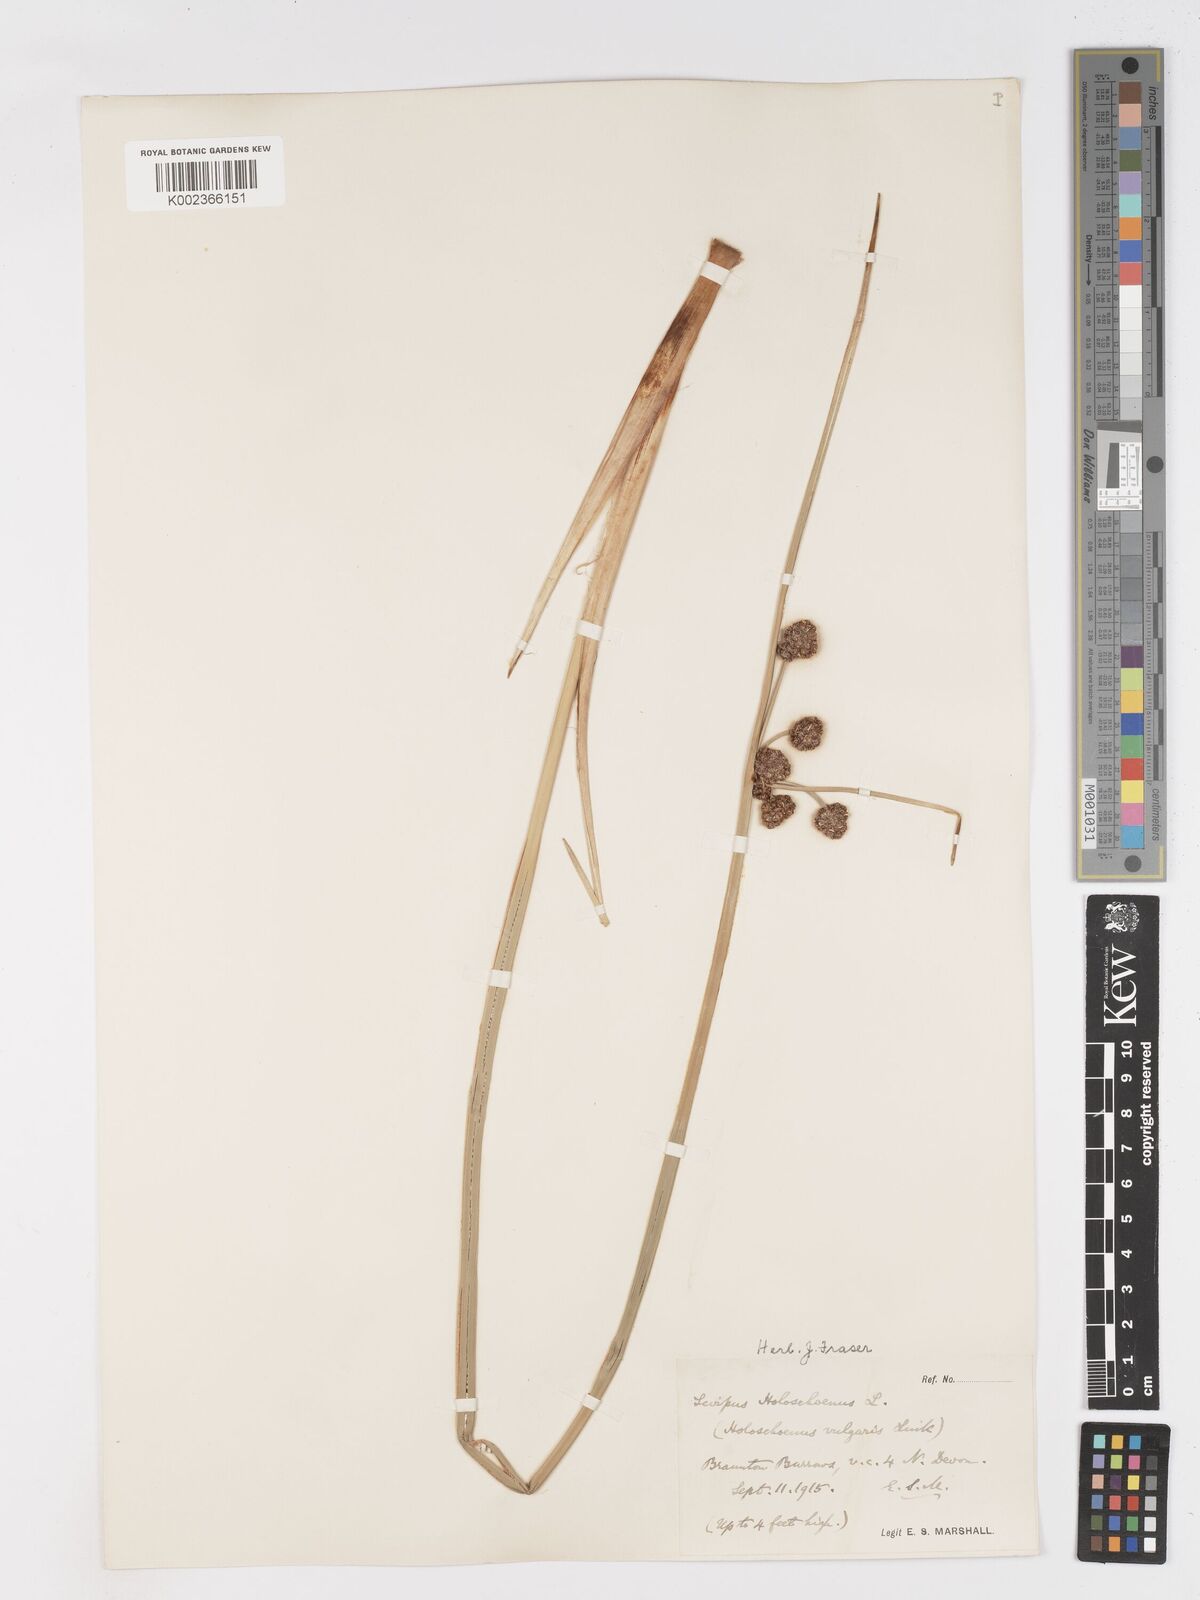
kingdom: Plantae
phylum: Tracheophyta
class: Liliopsida
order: Poales
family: Cyperaceae
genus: Scirpoides
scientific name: Scirpoides holoschoenus
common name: Round-headed club-rush
